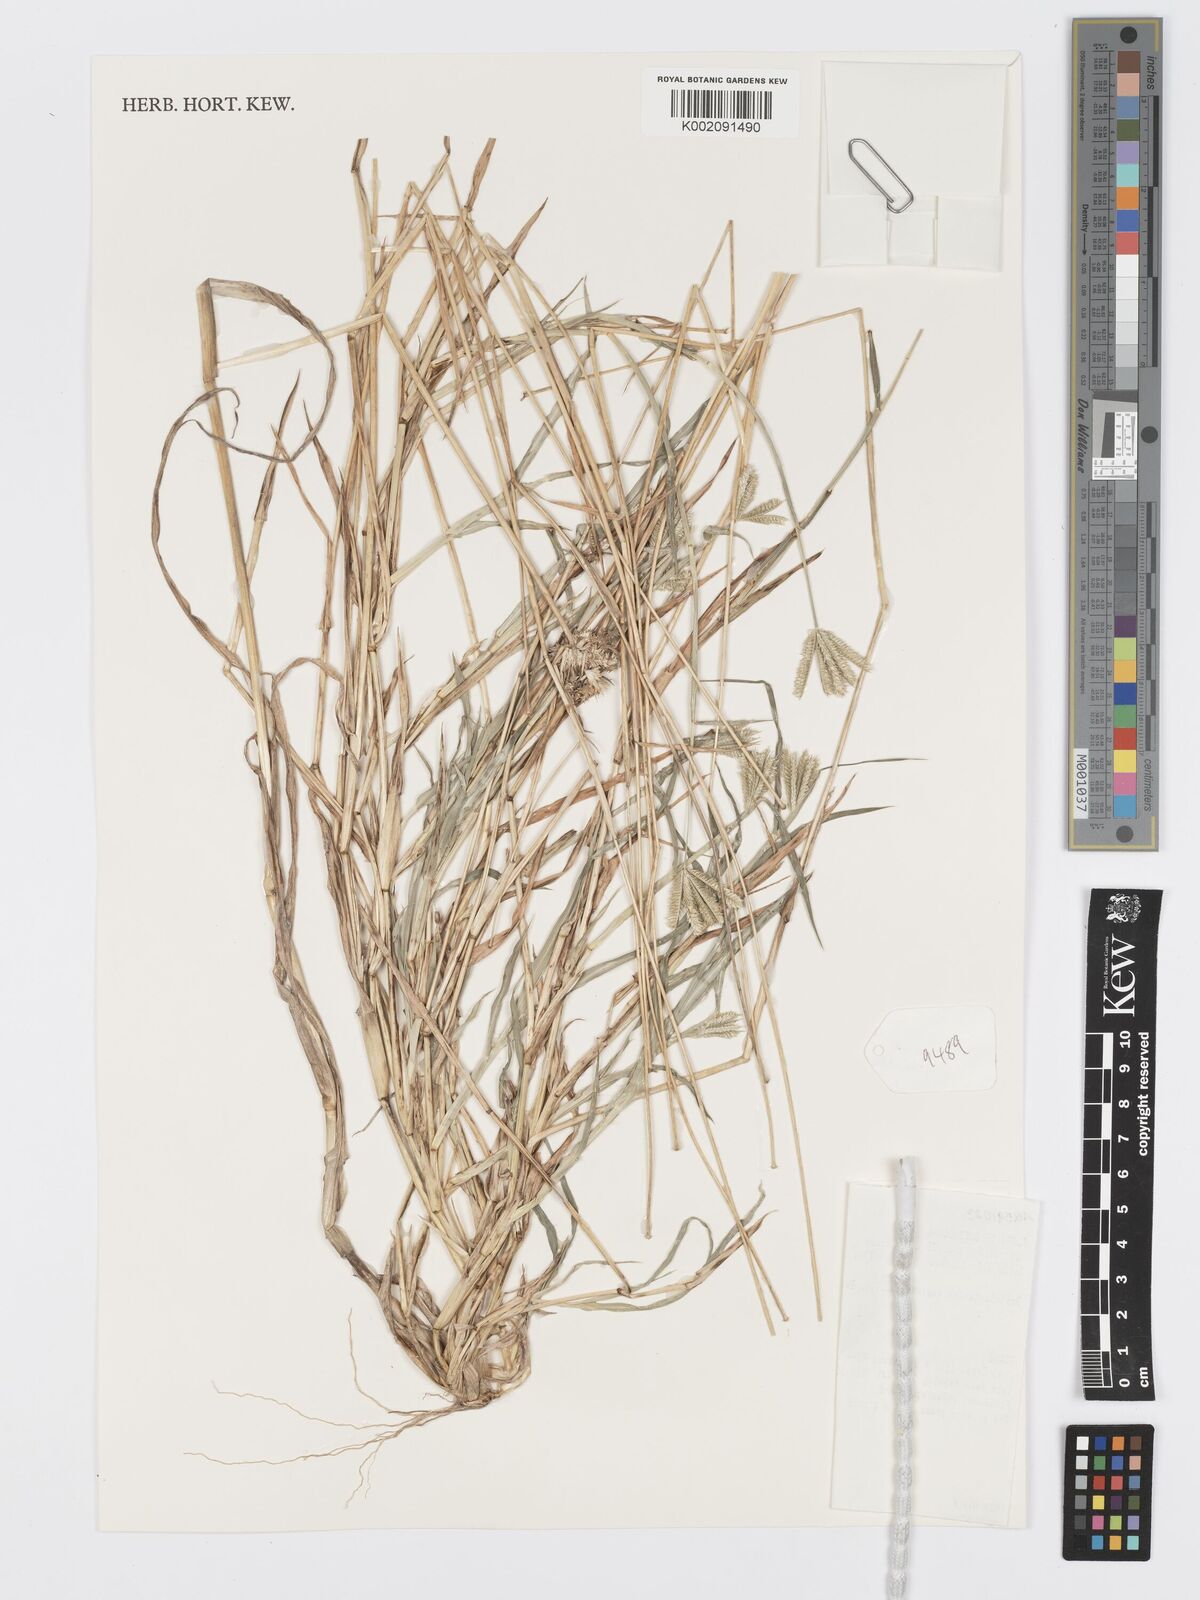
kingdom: Plantae
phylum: Tracheophyta
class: Liliopsida
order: Poales
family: Poaceae
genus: Dactyloctenium
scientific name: Dactyloctenium aegyptium
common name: Egyptian grass
